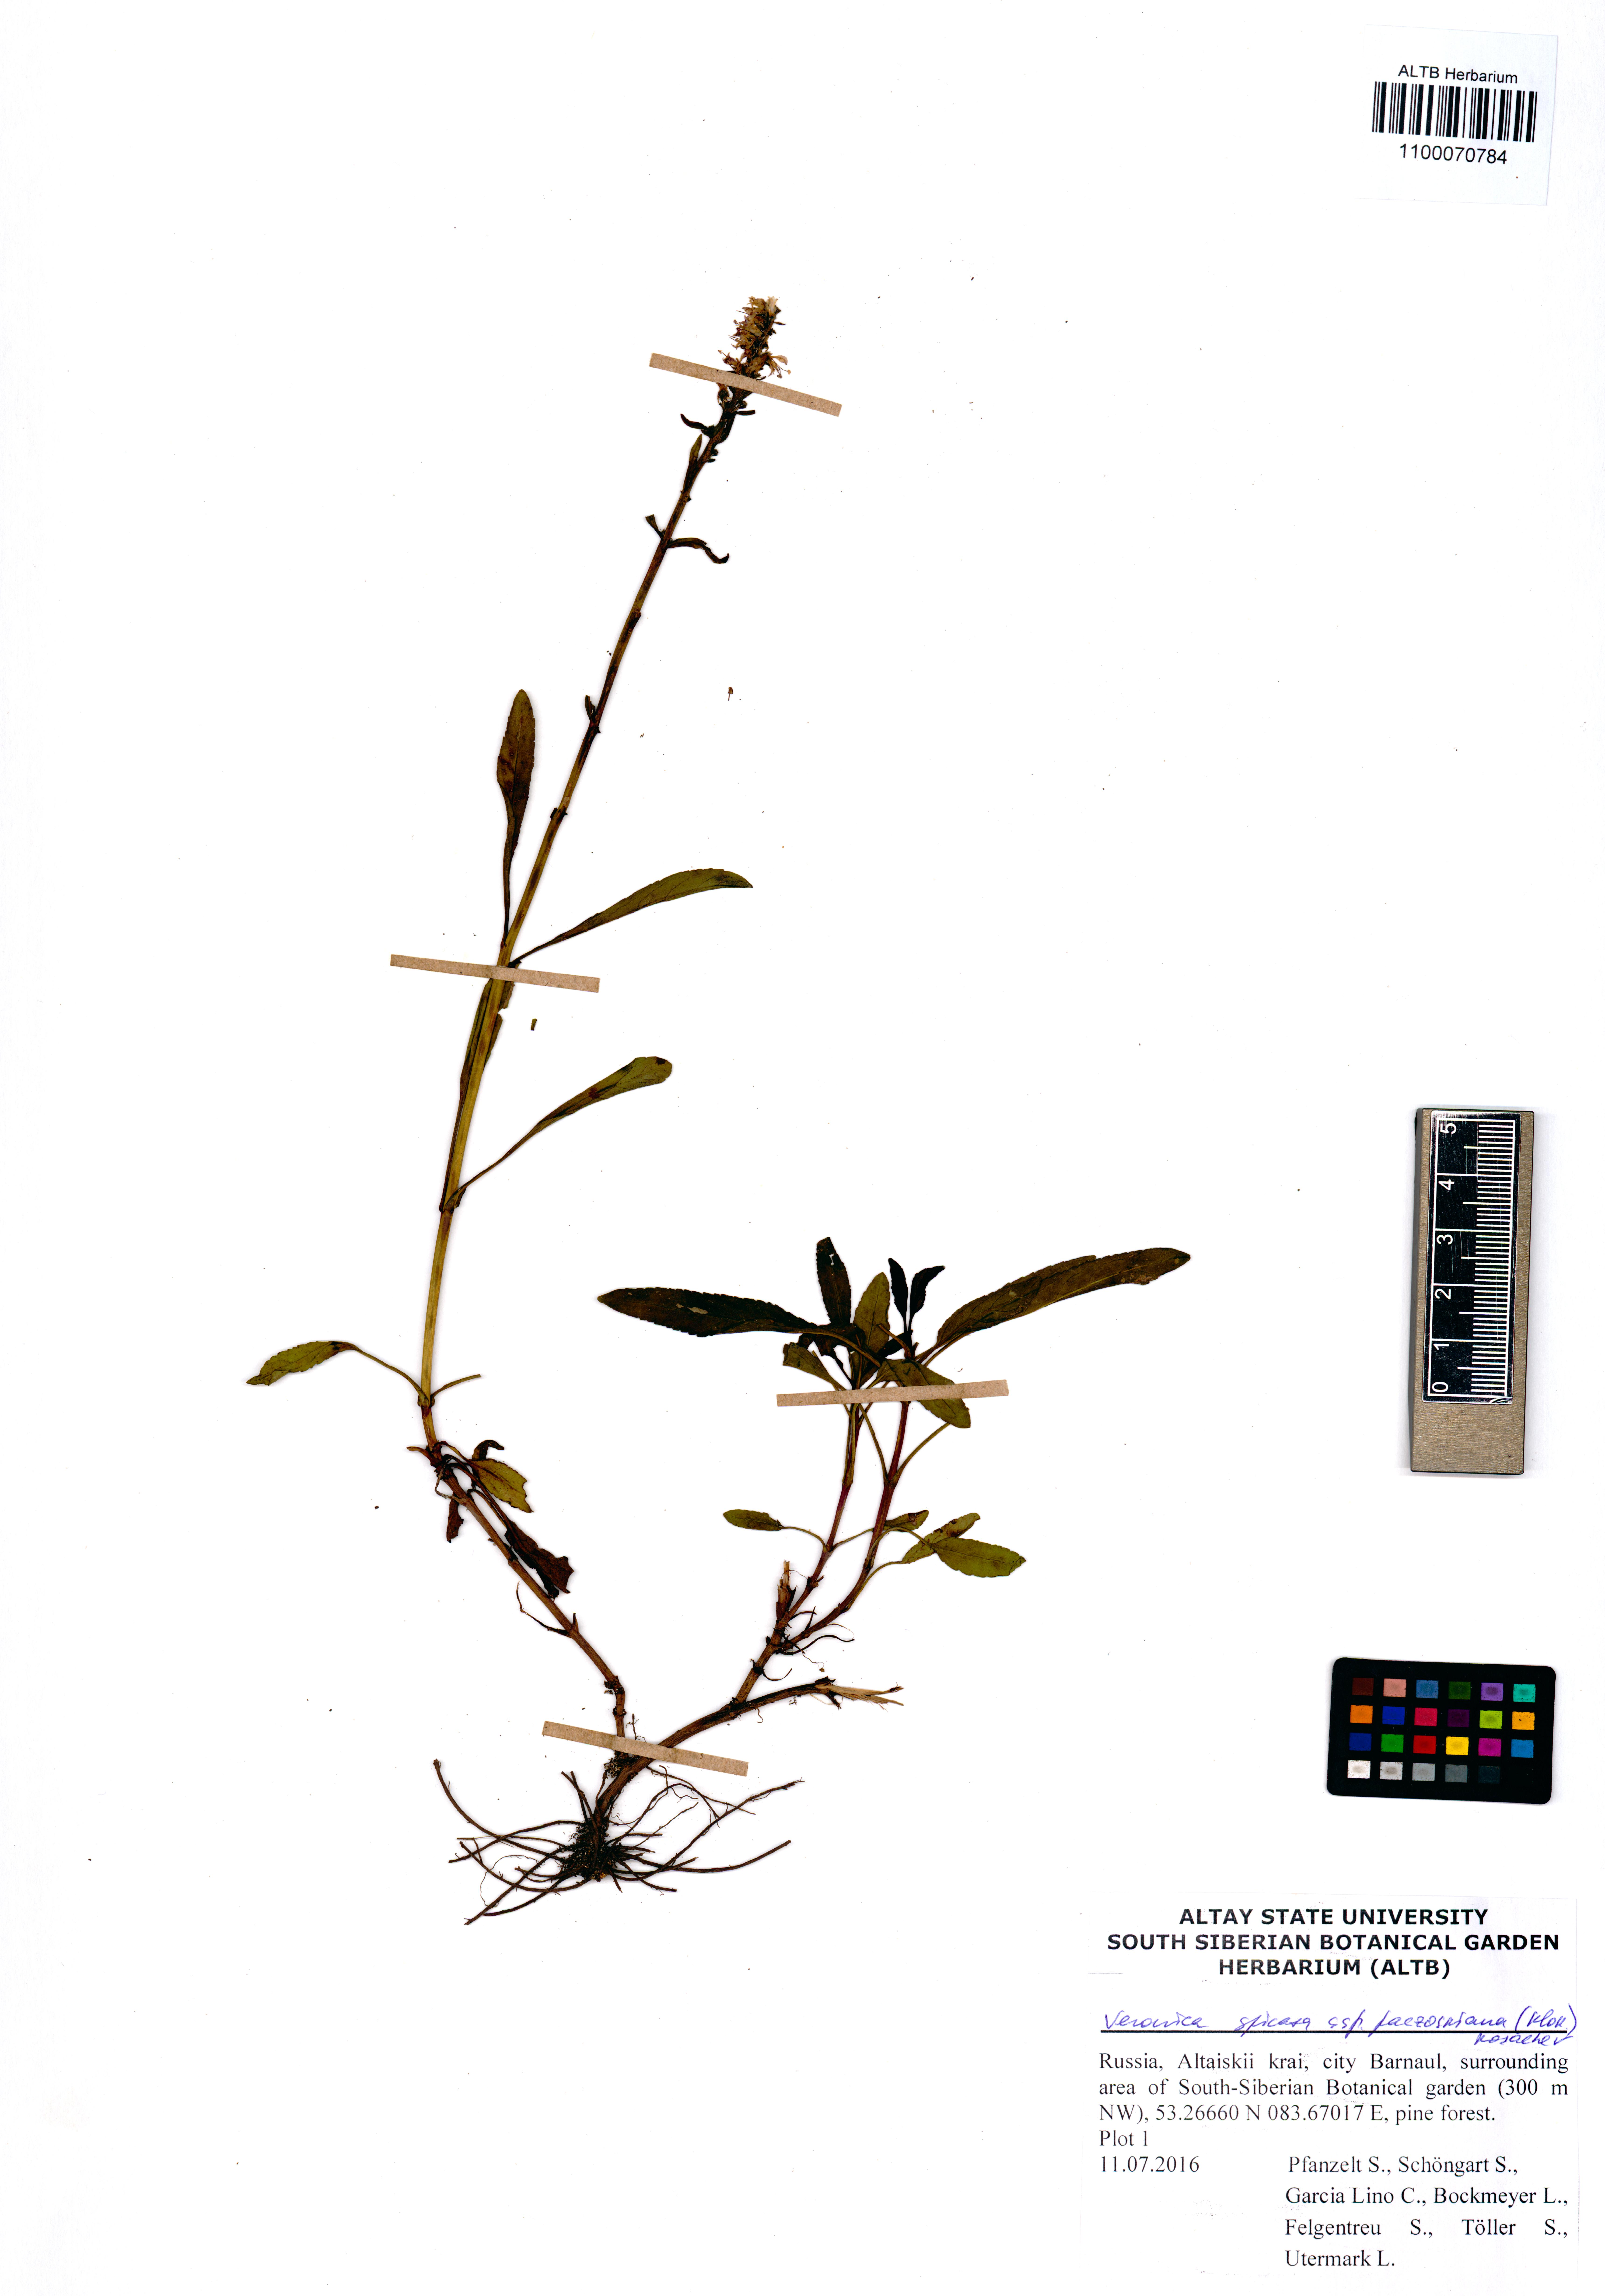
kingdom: Plantae
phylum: Tracheophyta
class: Magnoliopsida
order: Lamiales
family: Plantaginaceae
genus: Veronica
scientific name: Veronica spicata
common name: Spiked speedwell
